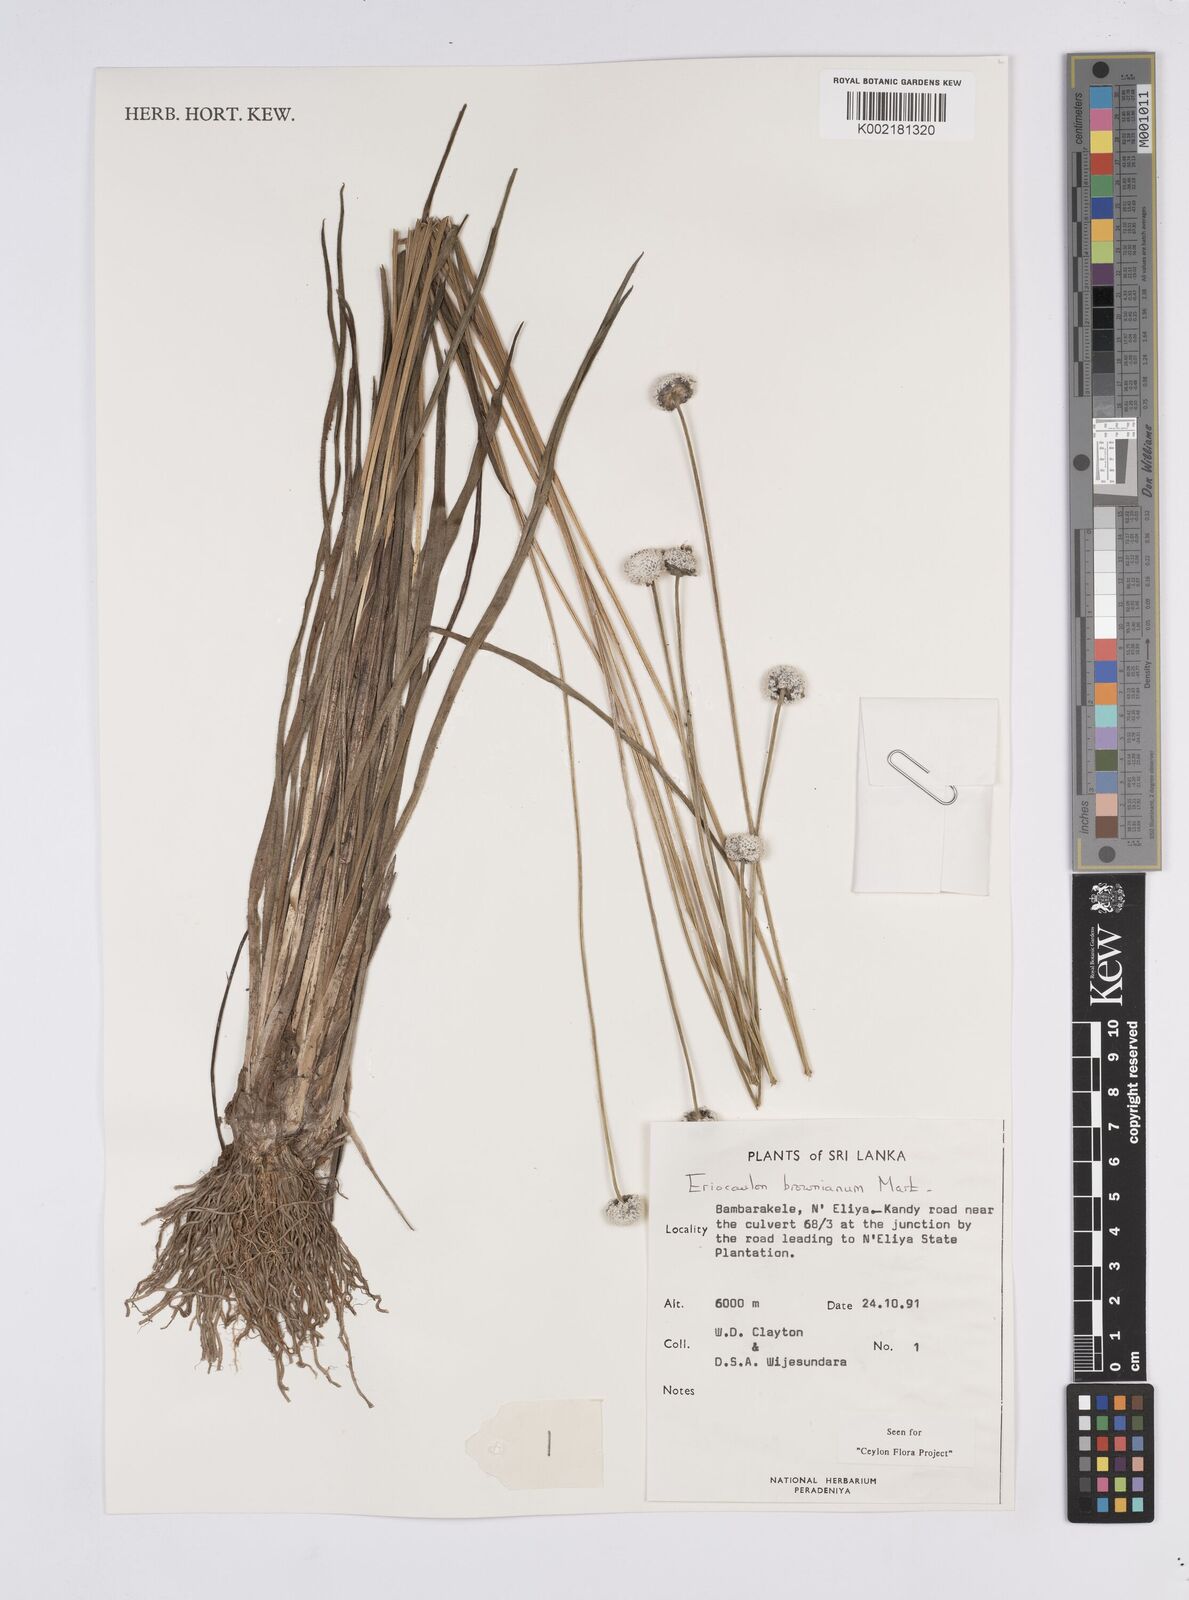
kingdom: Plantae
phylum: Tracheophyta
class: Liliopsida
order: Poales
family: Eriocaulaceae
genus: Eriocaulon
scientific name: Eriocaulon brownianum
